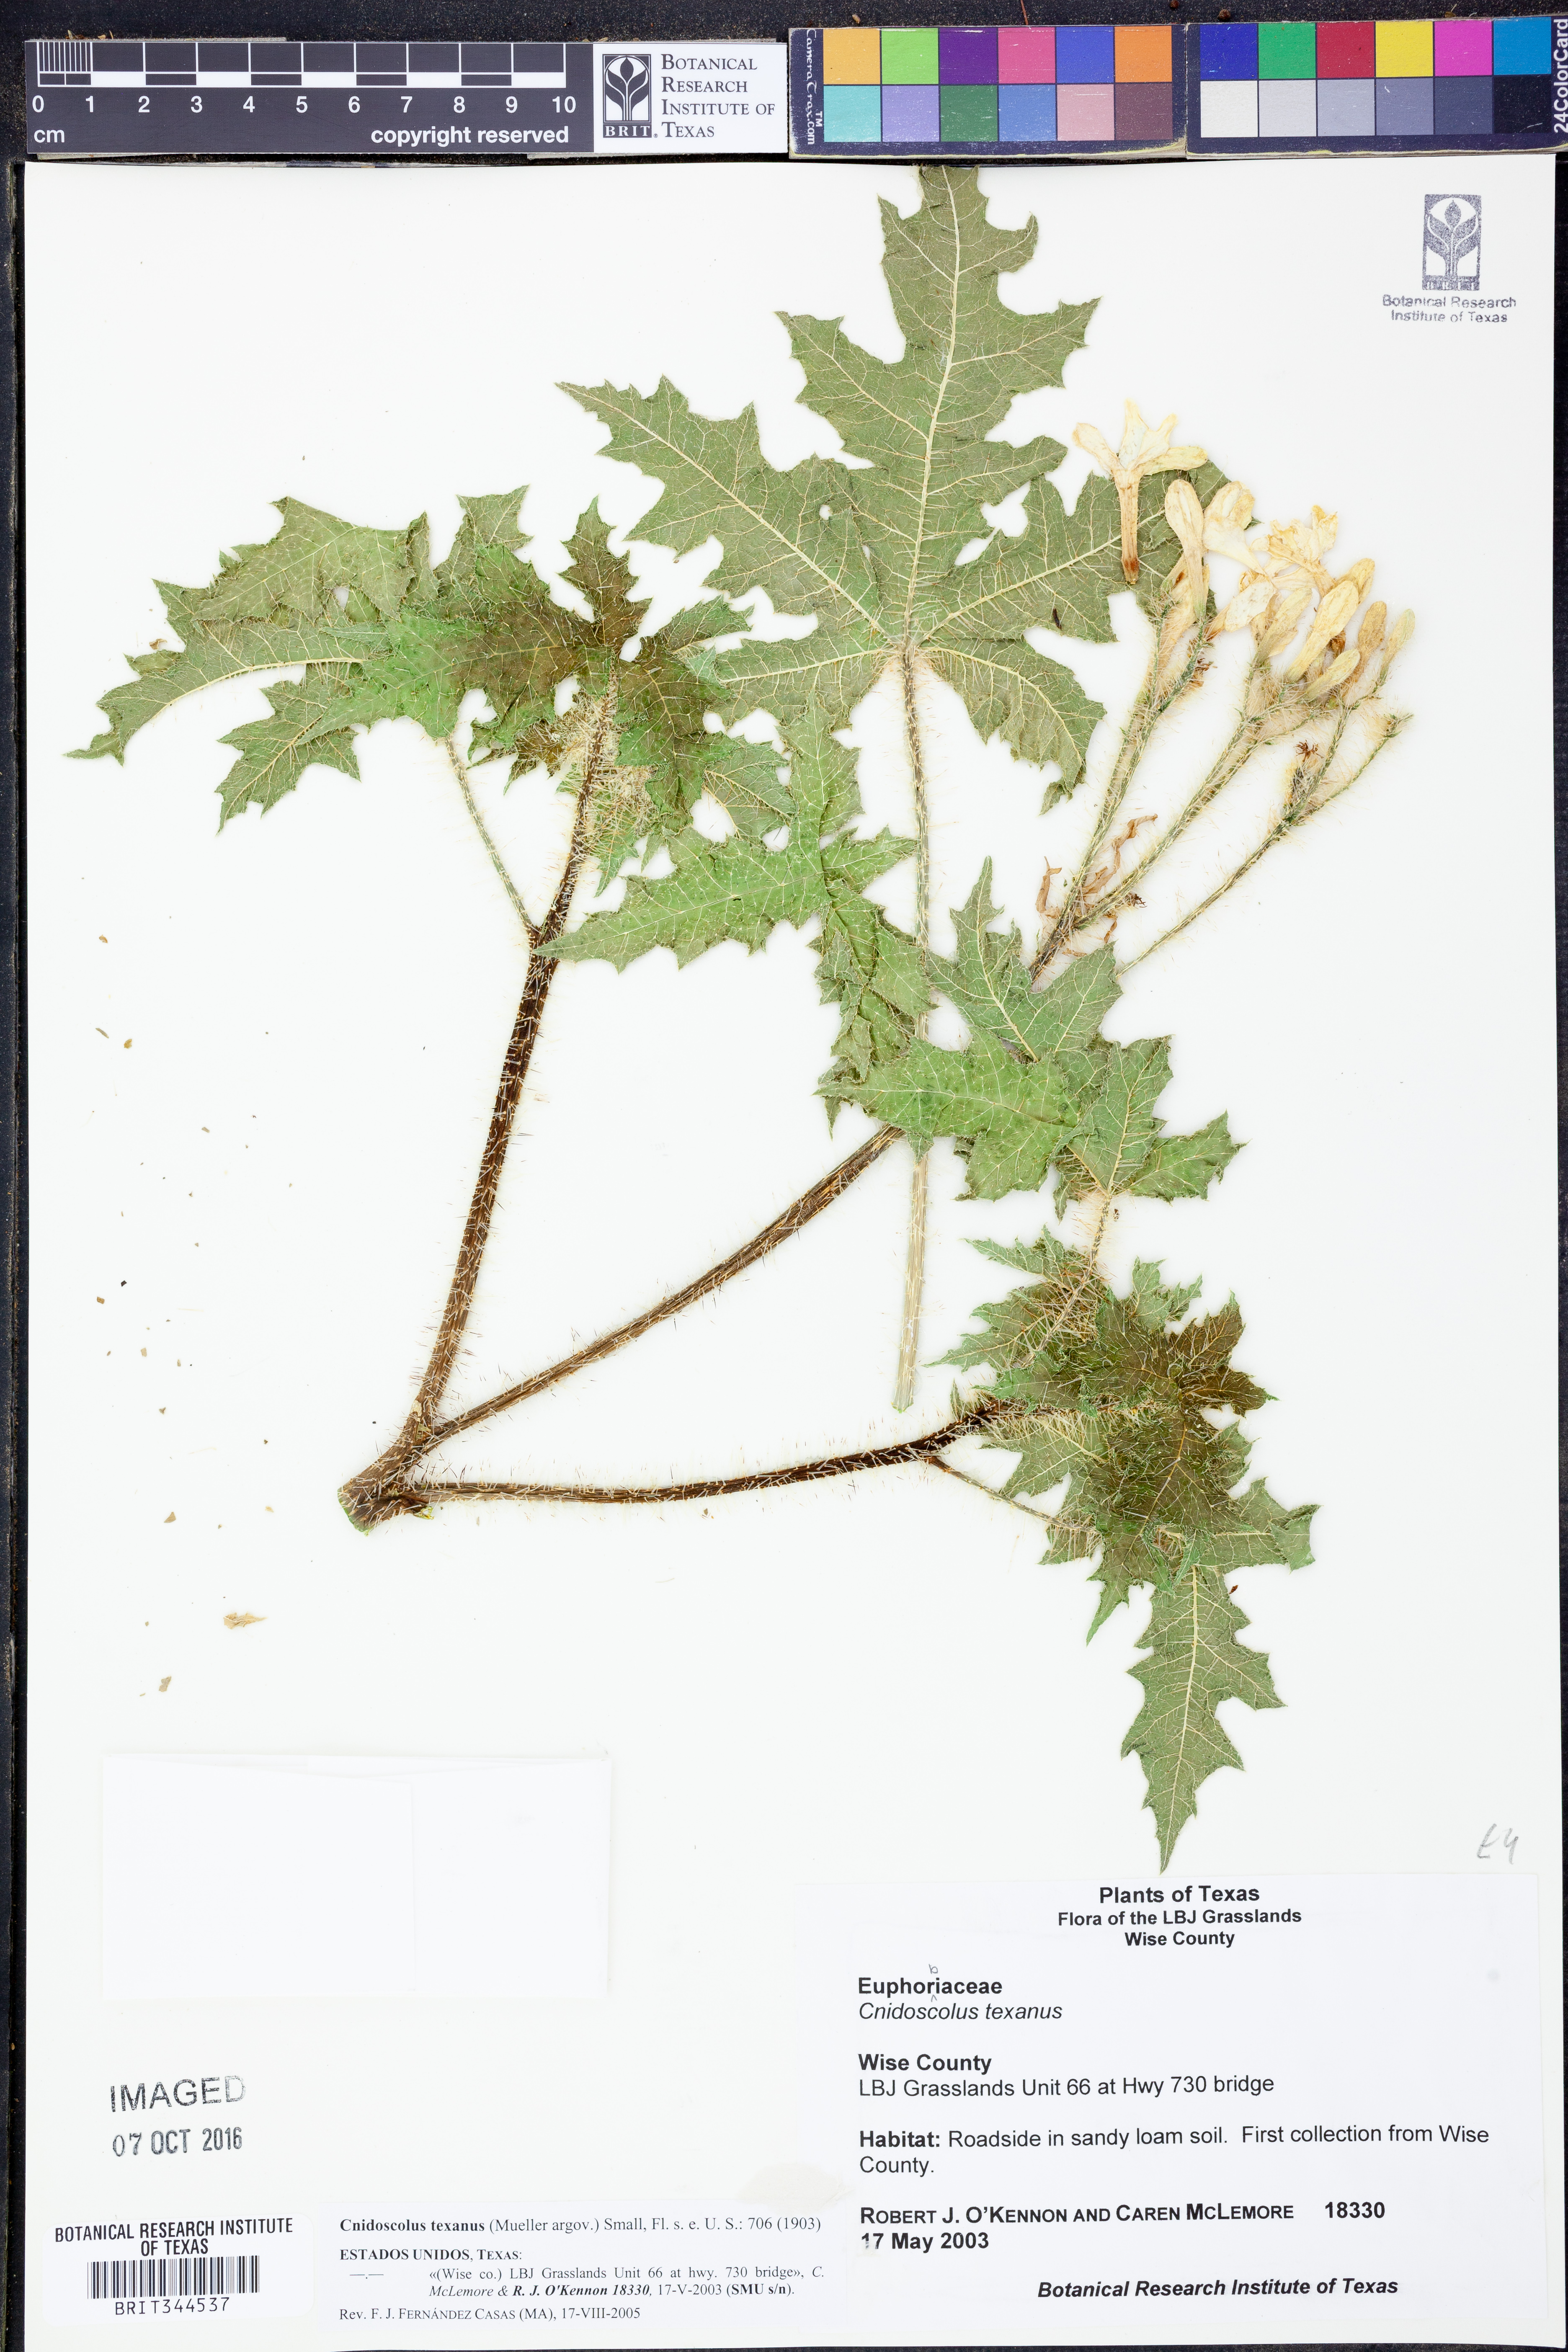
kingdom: Plantae
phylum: Tracheophyta
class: Magnoliopsida
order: Malpighiales
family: Euphorbiaceae
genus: Cnidoscolus
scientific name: Cnidoscolus texanus
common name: Texas bull-nettle
